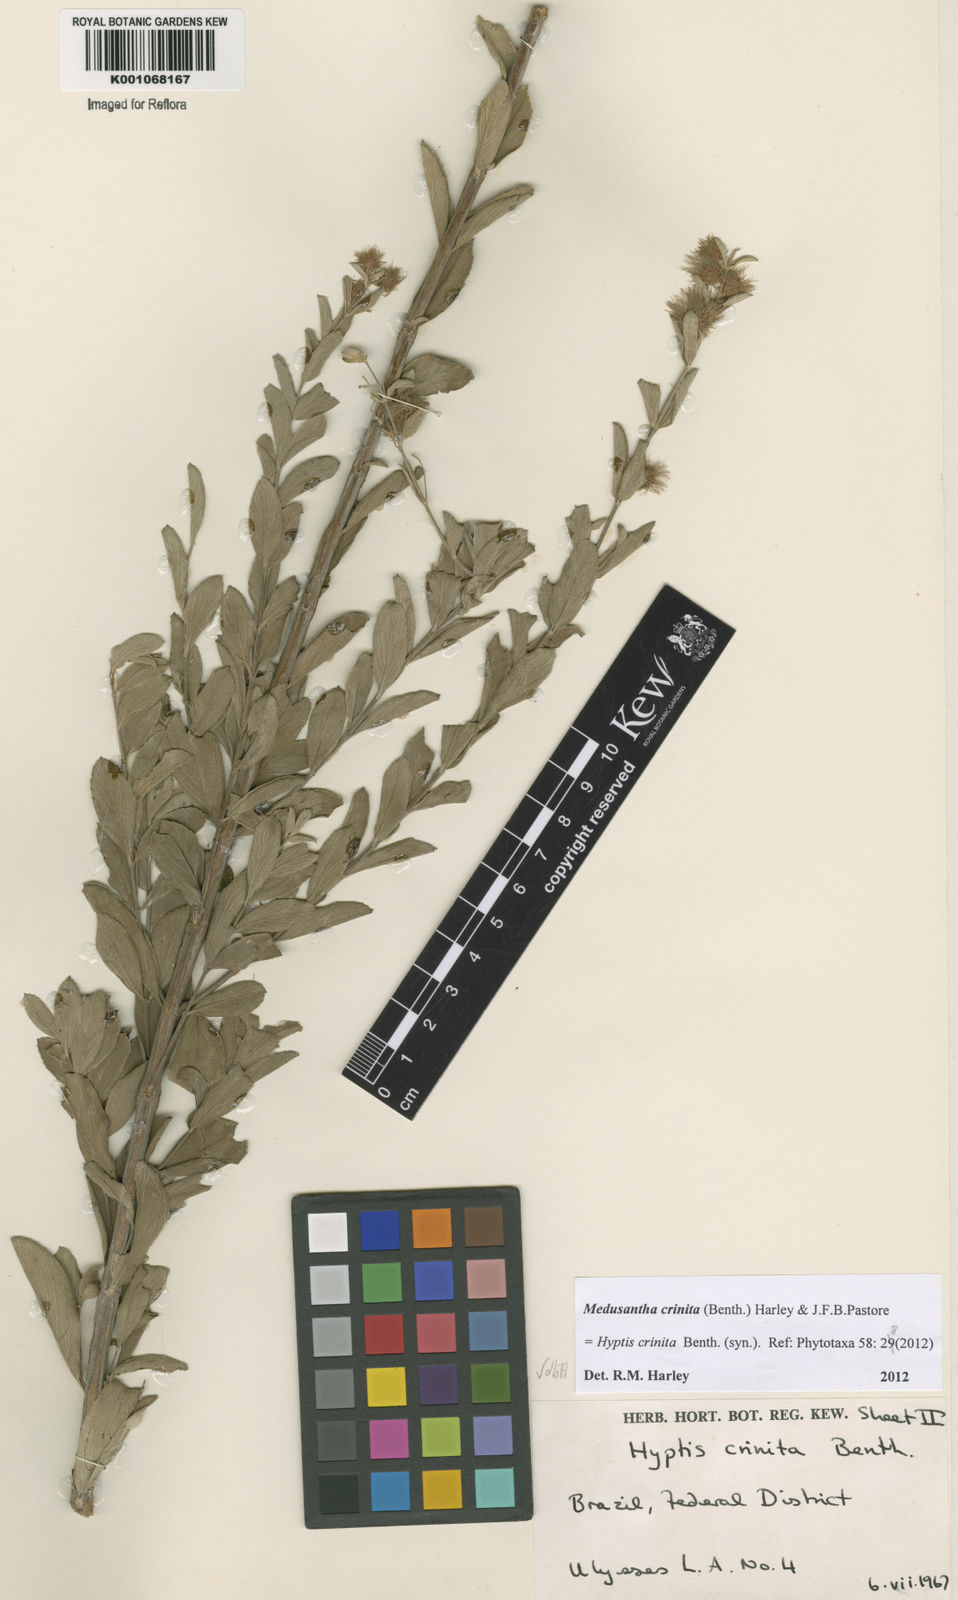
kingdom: Plantae
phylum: Tracheophyta
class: Magnoliopsida
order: Lamiales
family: Lamiaceae
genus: Medusantha
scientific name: Medusantha crinita
